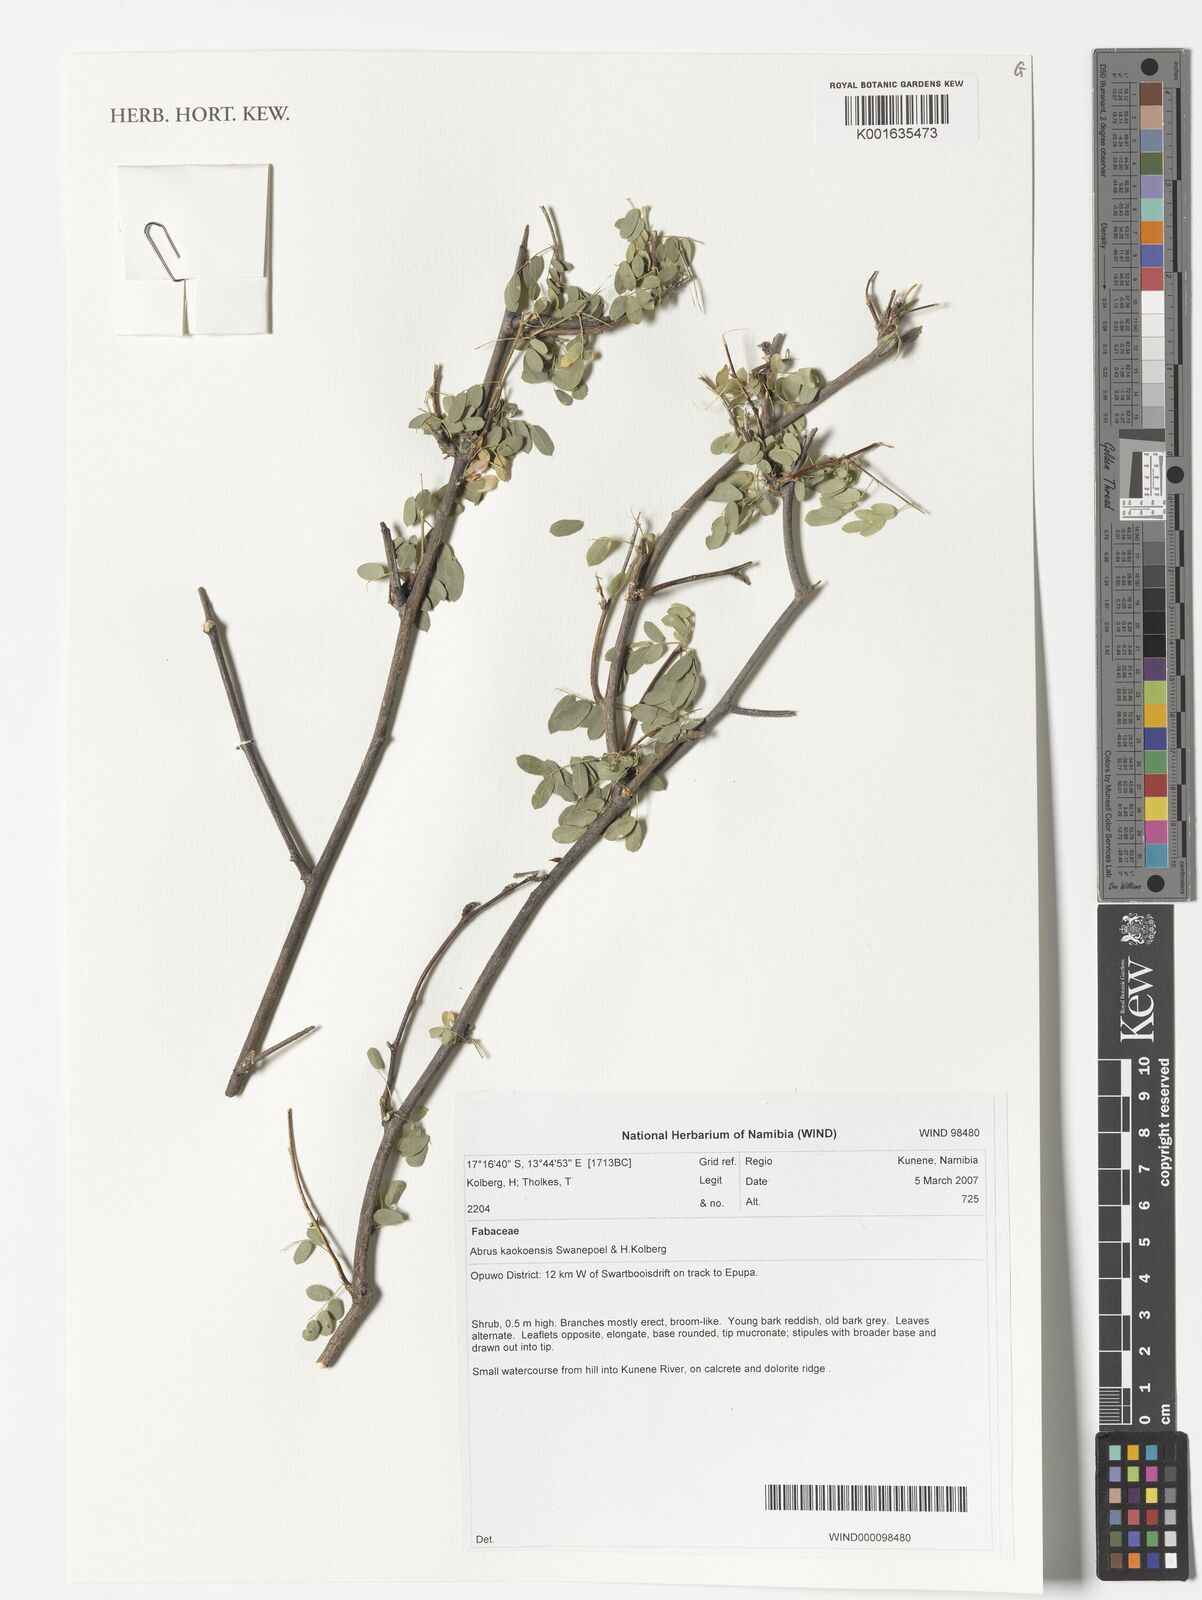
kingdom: Plantae
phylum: Tracheophyta
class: Magnoliopsida
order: Fabales
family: Fabaceae
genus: Abrus
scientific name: Abrus kaokoensis
